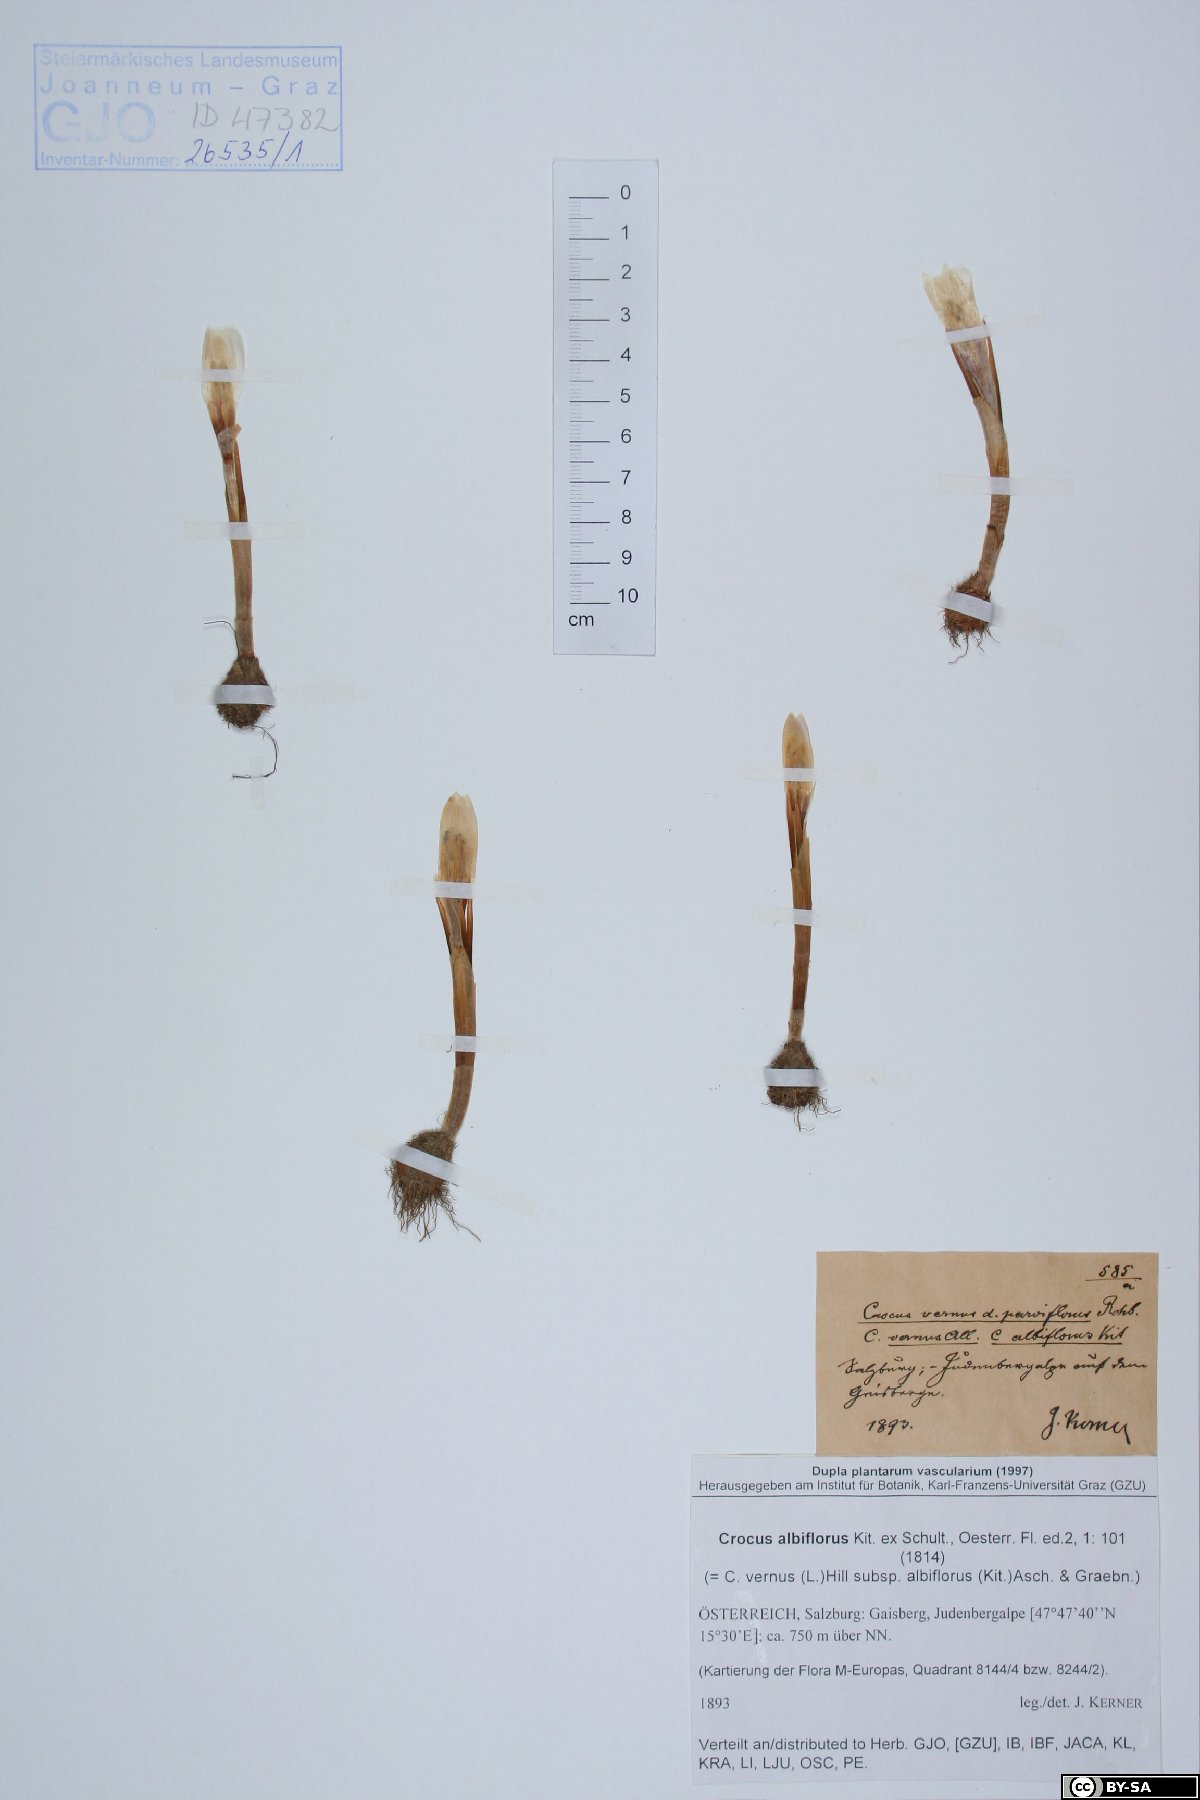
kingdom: Plantae
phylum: Tracheophyta
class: Liliopsida
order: Asparagales
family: Iridaceae
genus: Crocus
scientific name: Crocus vernus
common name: Spring crocus
